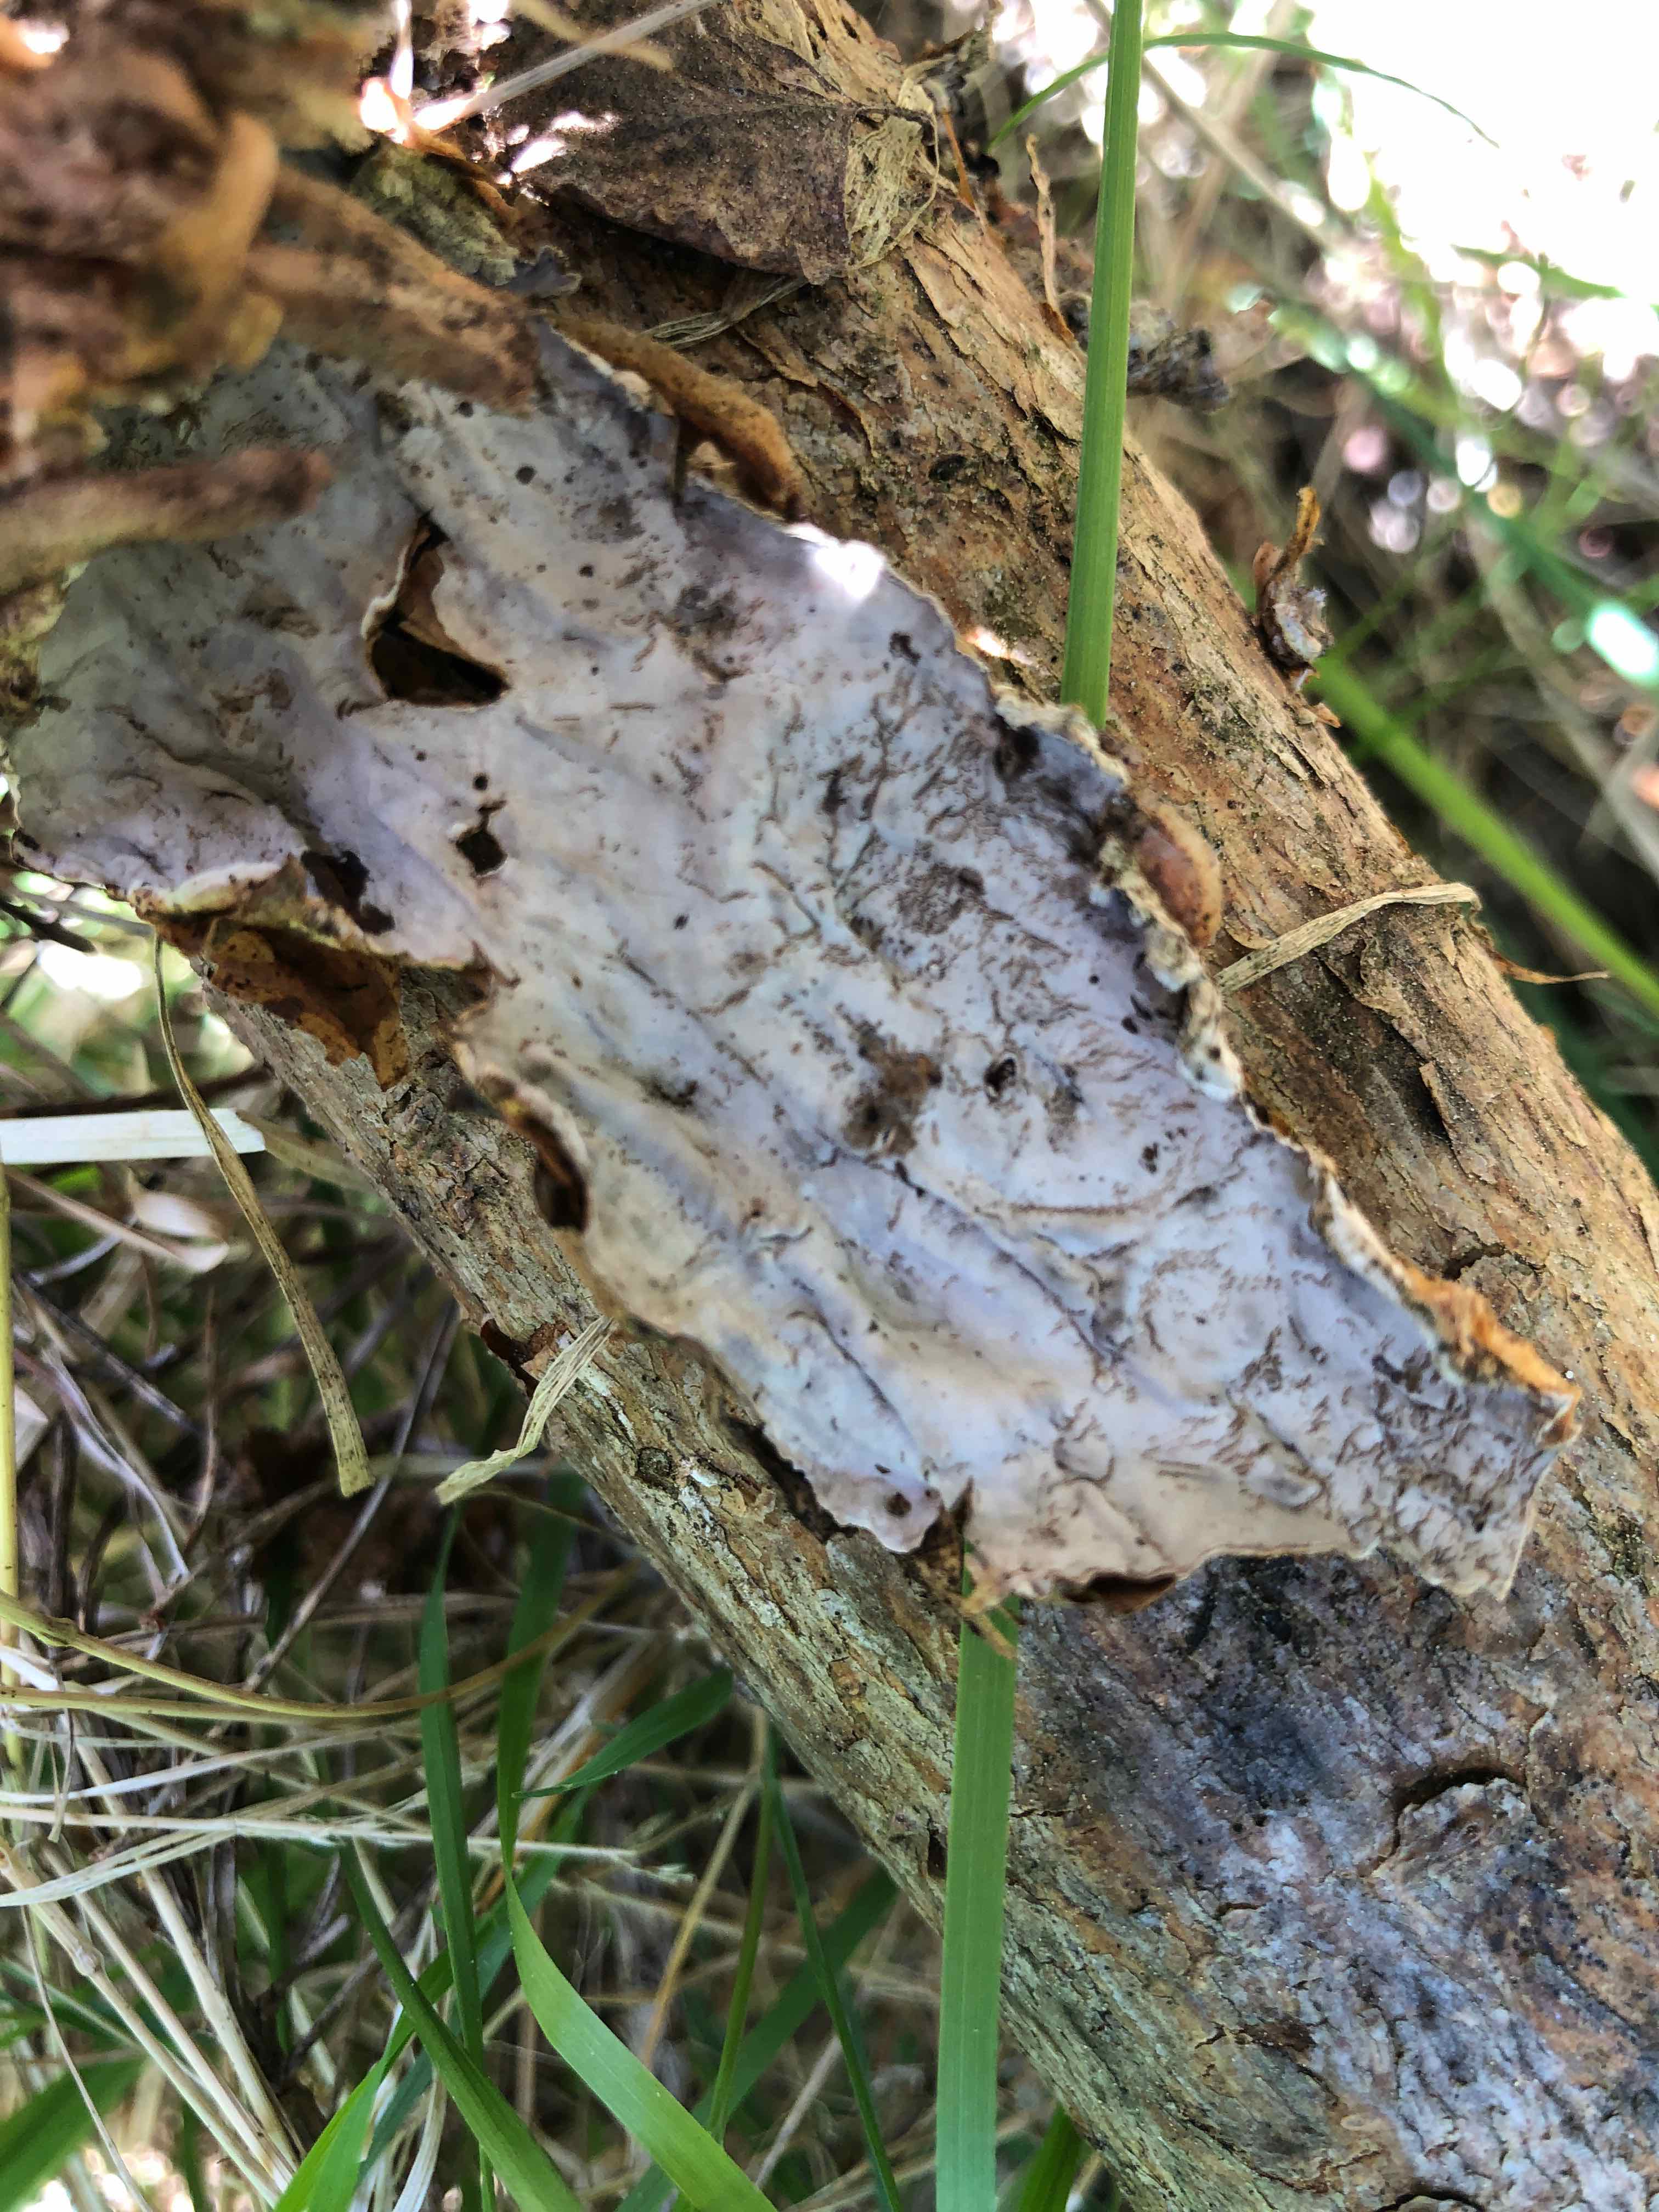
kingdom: Fungi
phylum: Basidiomycota
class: Agaricomycetes
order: Russulales
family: Stereaceae
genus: Stereum
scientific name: Stereum sanguinolentum
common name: blødende lædersvamp
